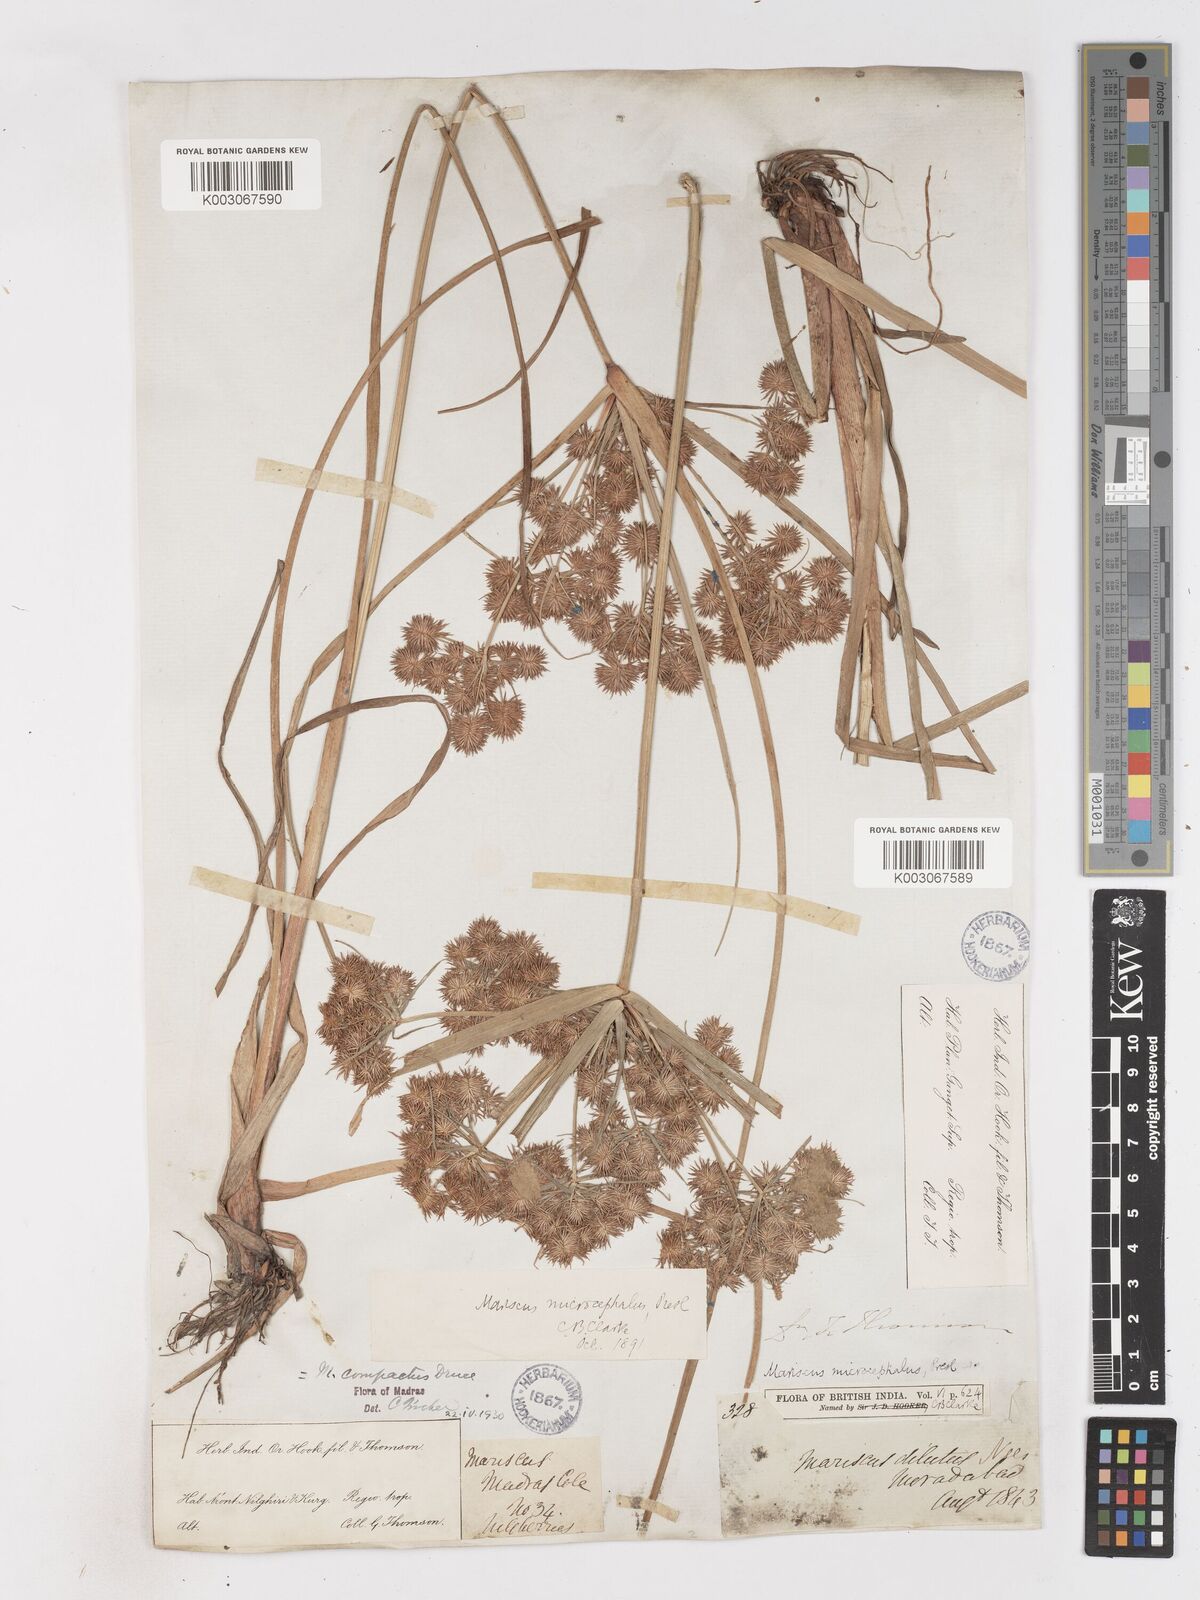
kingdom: Plantae
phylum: Tracheophyta
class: Liliopsida
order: Poales
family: Cyperaceae
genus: Cyperus
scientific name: Cyperus compactus
